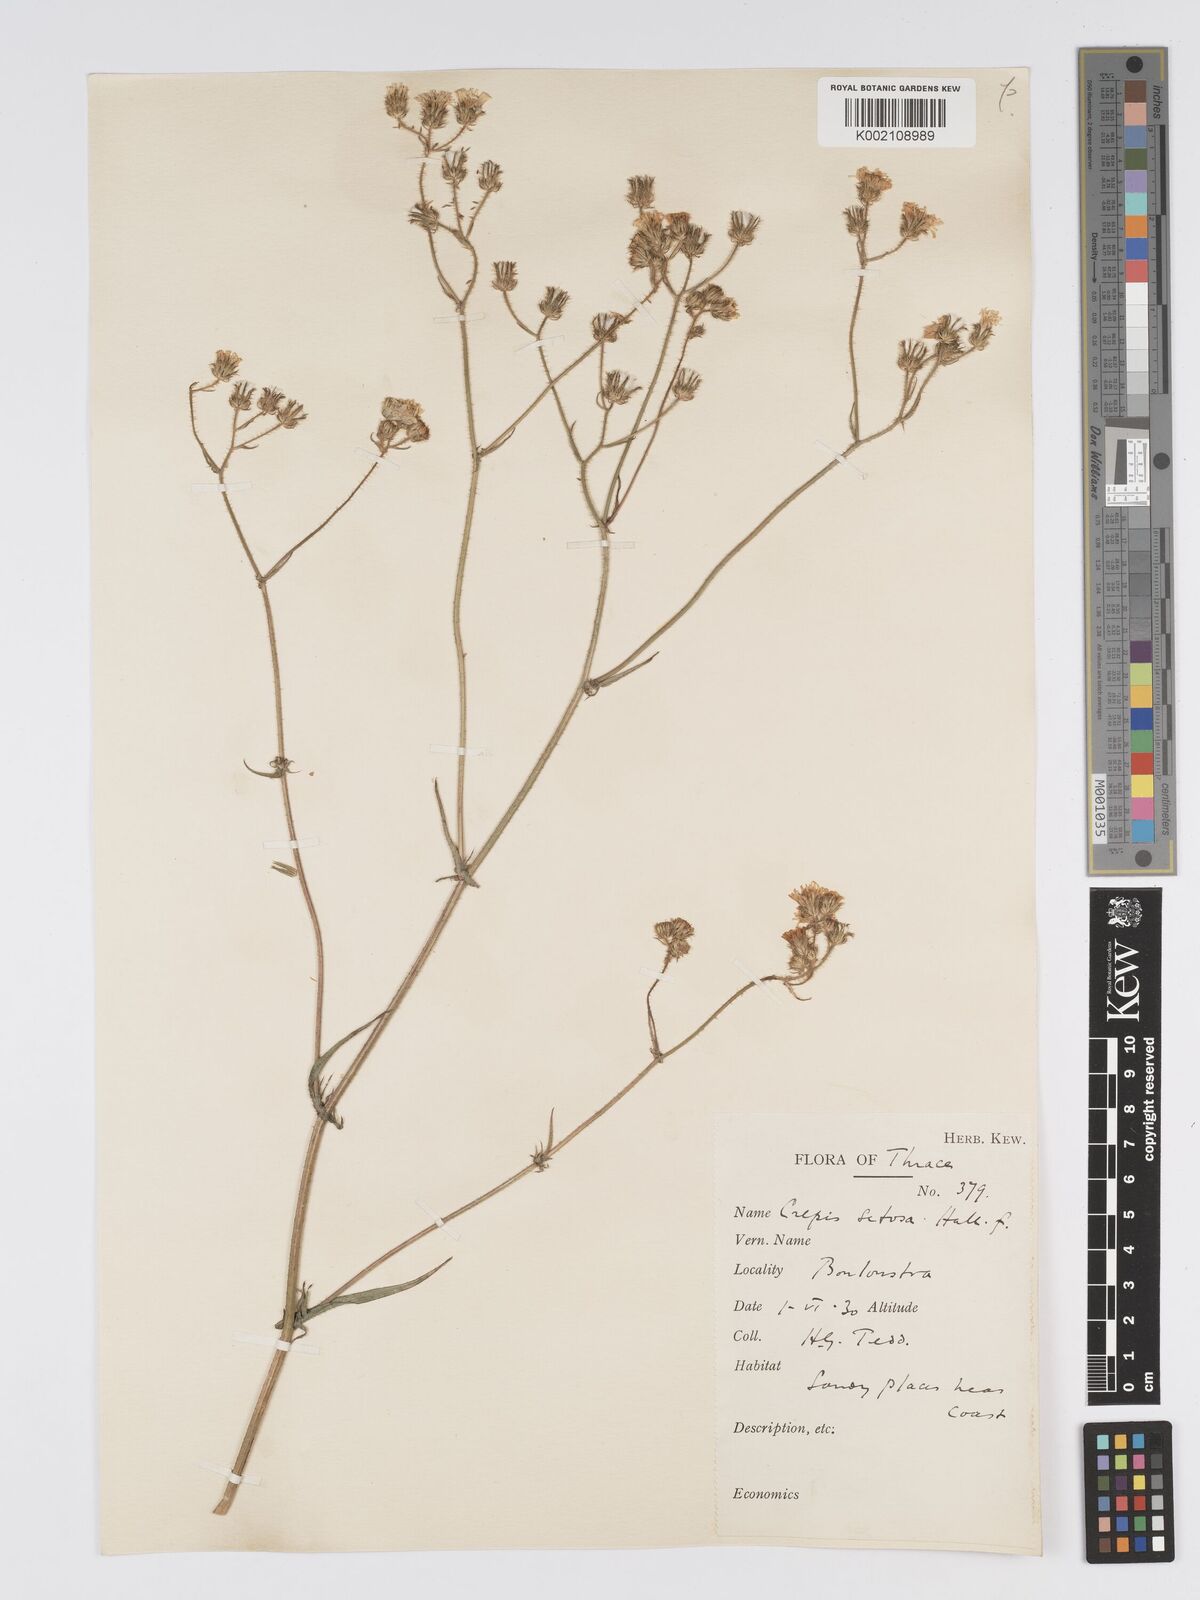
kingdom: Plantae
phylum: Tracheophyta
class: Magnoliopsida
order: Asterales
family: Asteraceae
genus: Crepis
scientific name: Crepis setosa
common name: Bristly hawk's-beard
